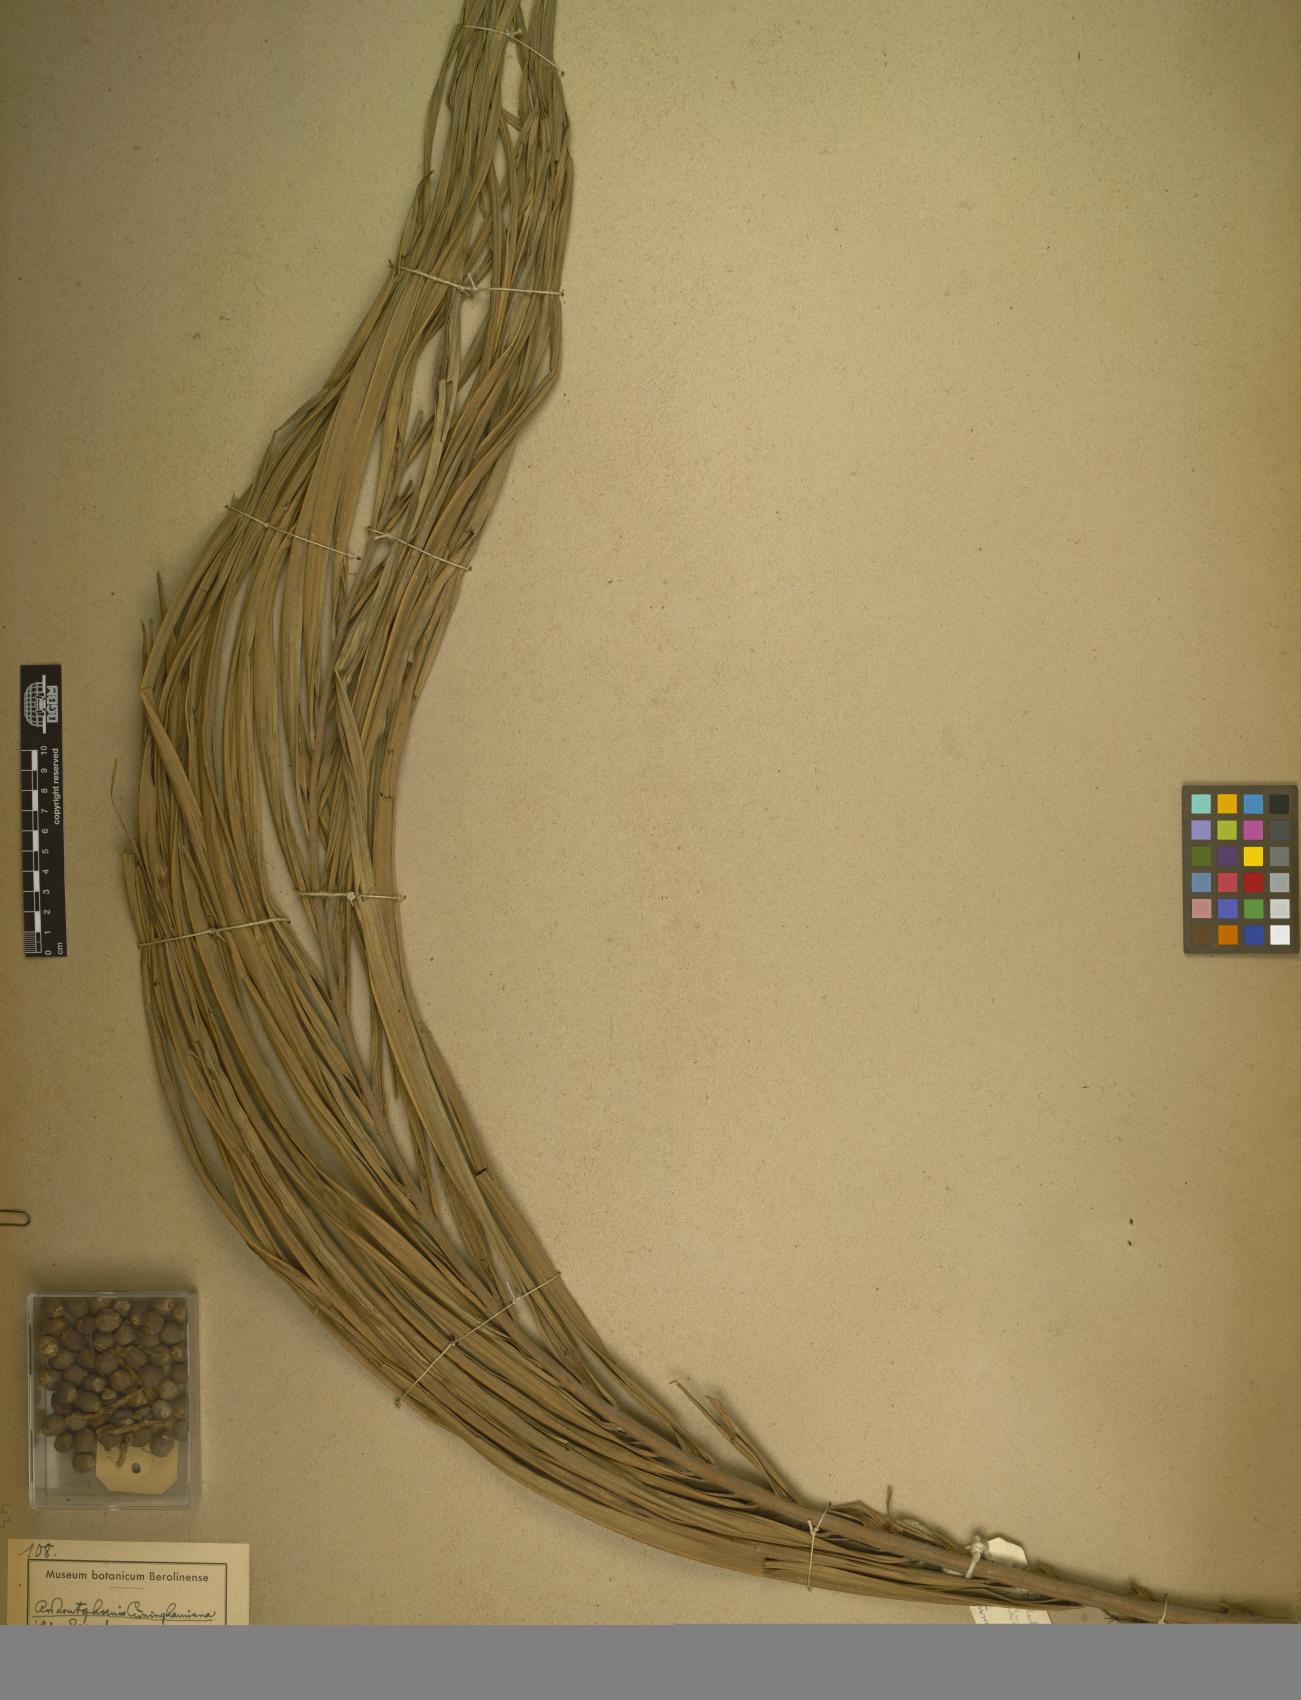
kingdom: Plantae
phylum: Tracheophyta
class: Liliopsida
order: Arecales
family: Arecaceae
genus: Acanthophoenix
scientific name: Acanthophoenix
